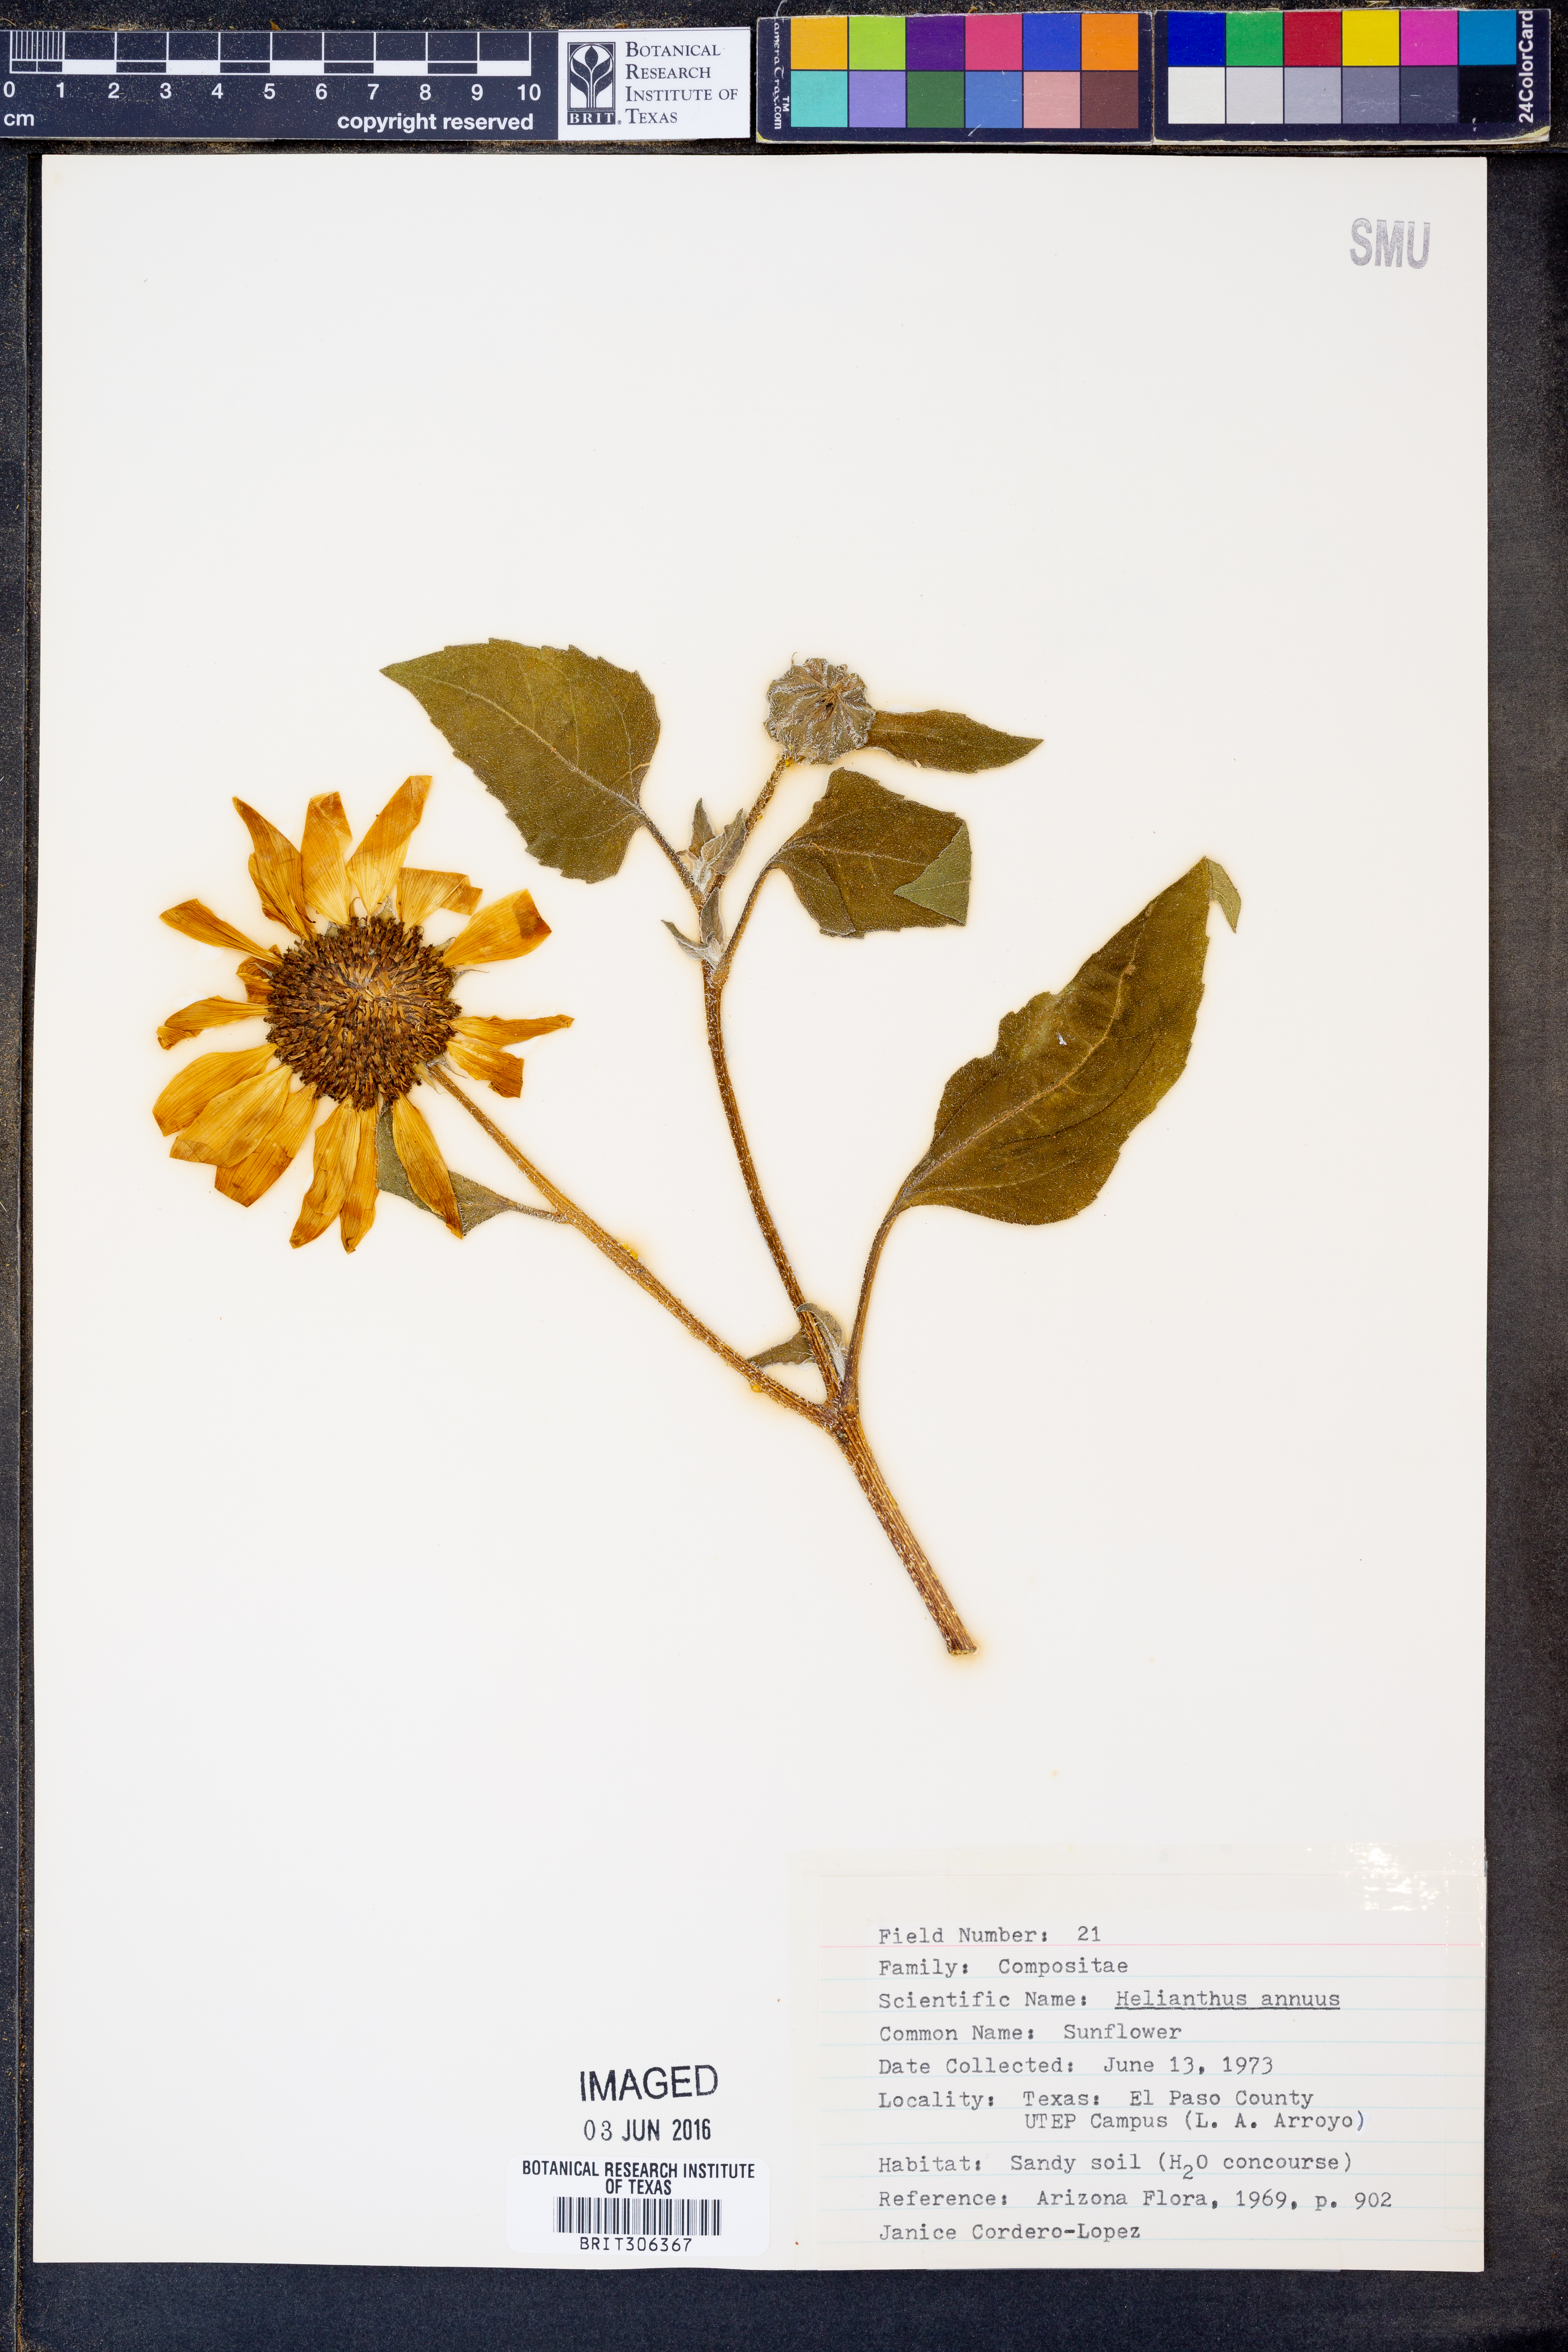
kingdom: Plantae
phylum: Tracheophyta
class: Magnoliopsida
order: Asterales
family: Asteraceae
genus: Helianthus
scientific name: Helianthus annuus
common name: Sunflower
